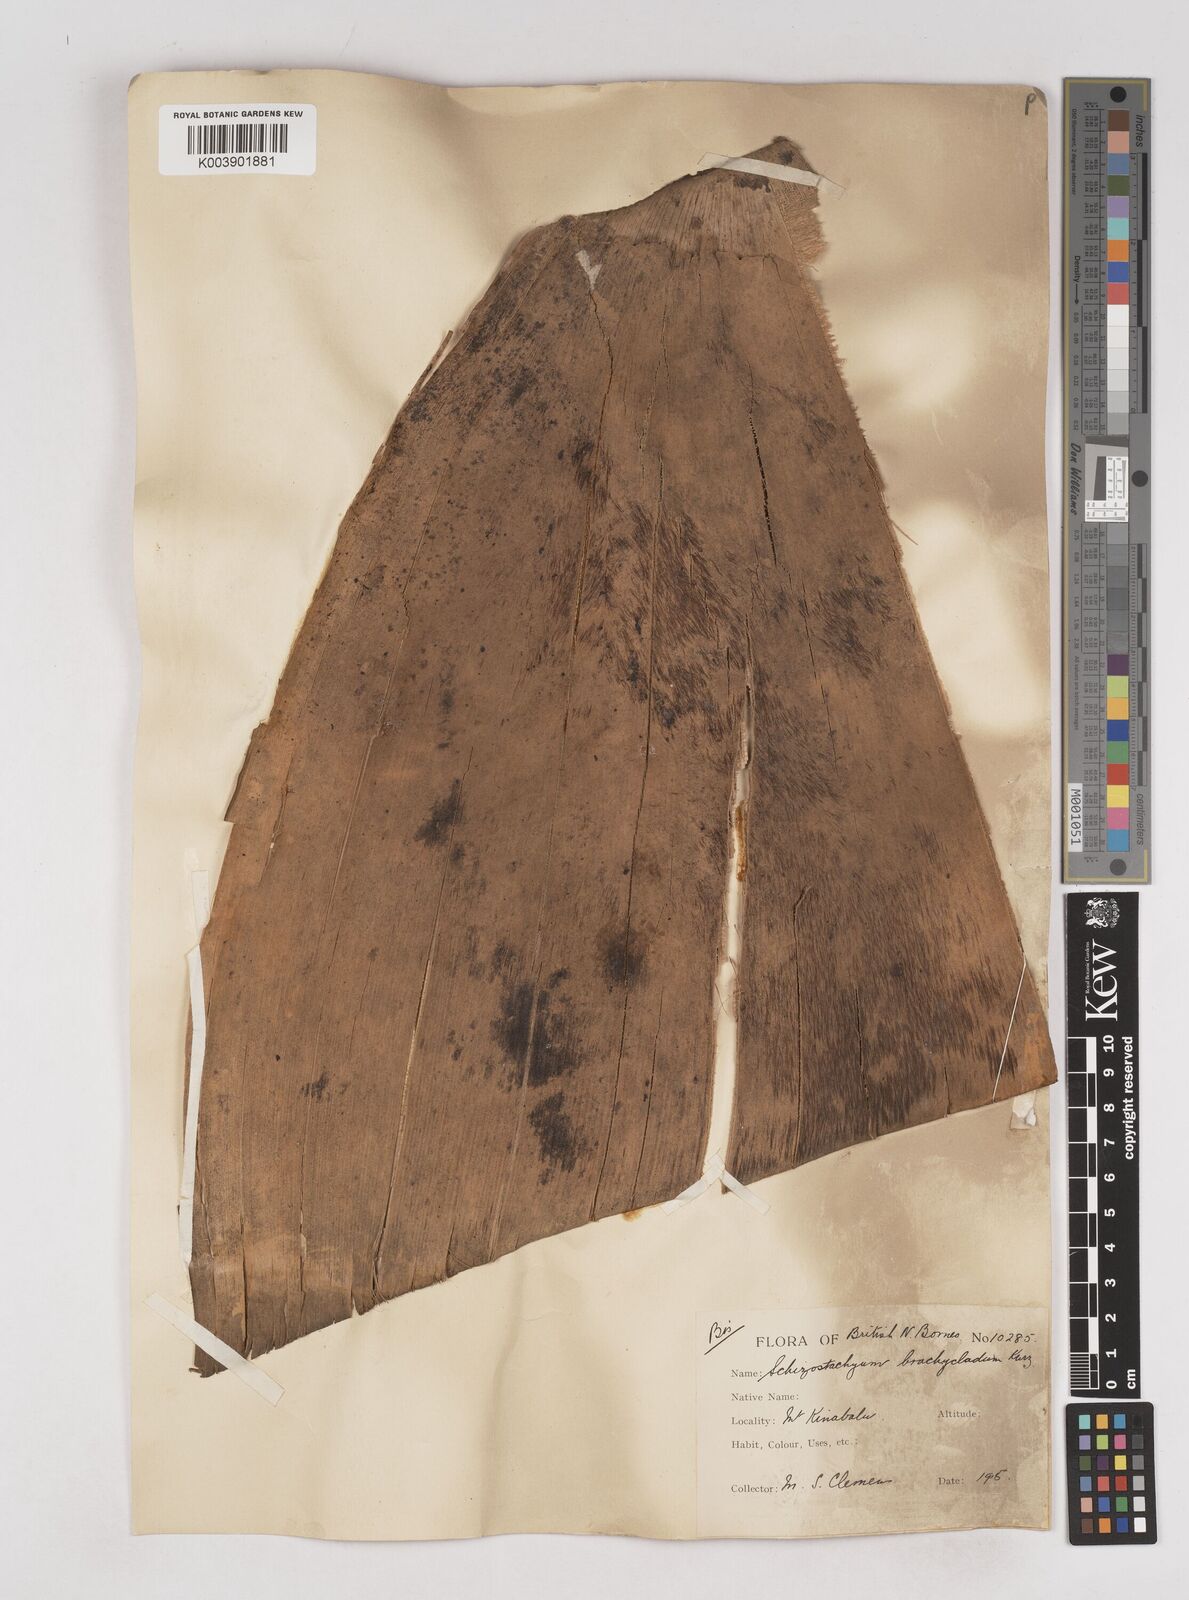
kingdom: Plantae
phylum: Tracheophyta
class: Liliopsida
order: Poales
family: Poaceae
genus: Schizostachyum
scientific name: Schizostachyum brachycladum
